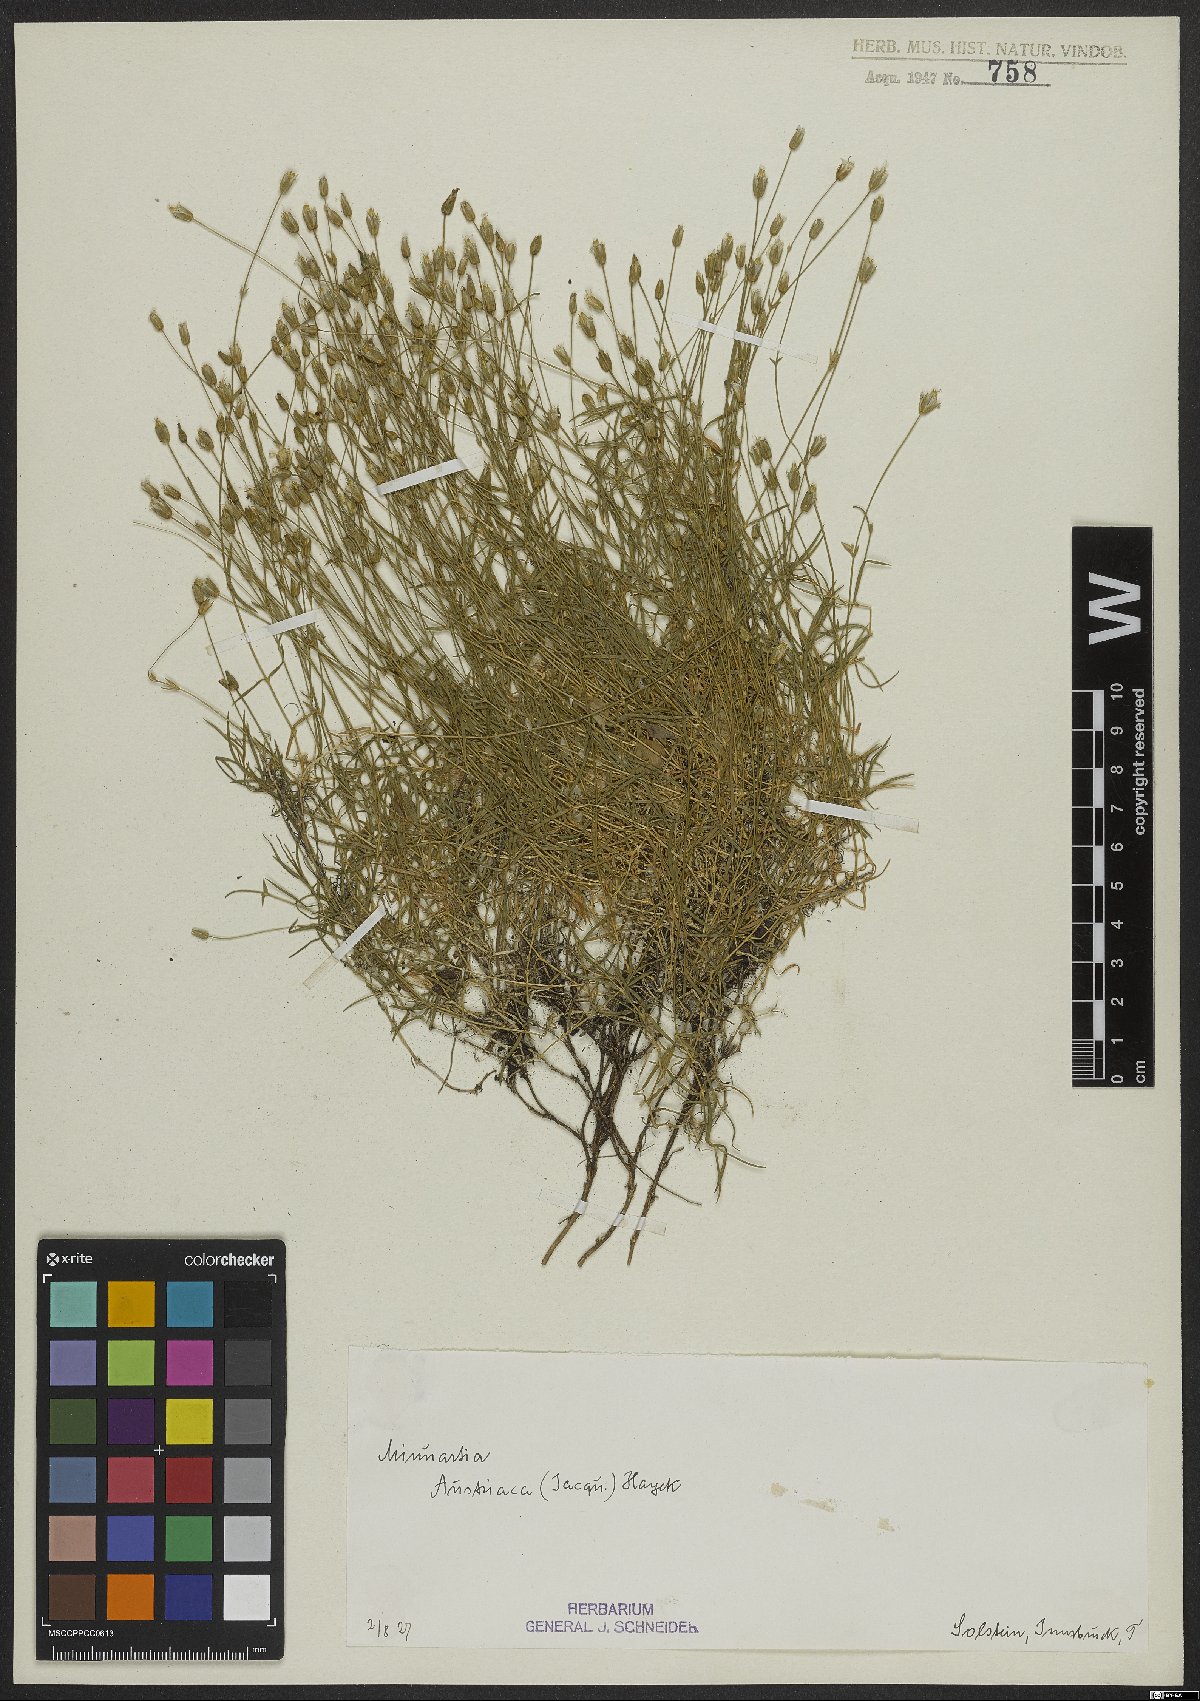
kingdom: Plantae
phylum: Tracheophyta
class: Magnoliopsida
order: Caryophyllales
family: Caryophyllaceae
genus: Sabulina
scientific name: Sabulina austriaca
